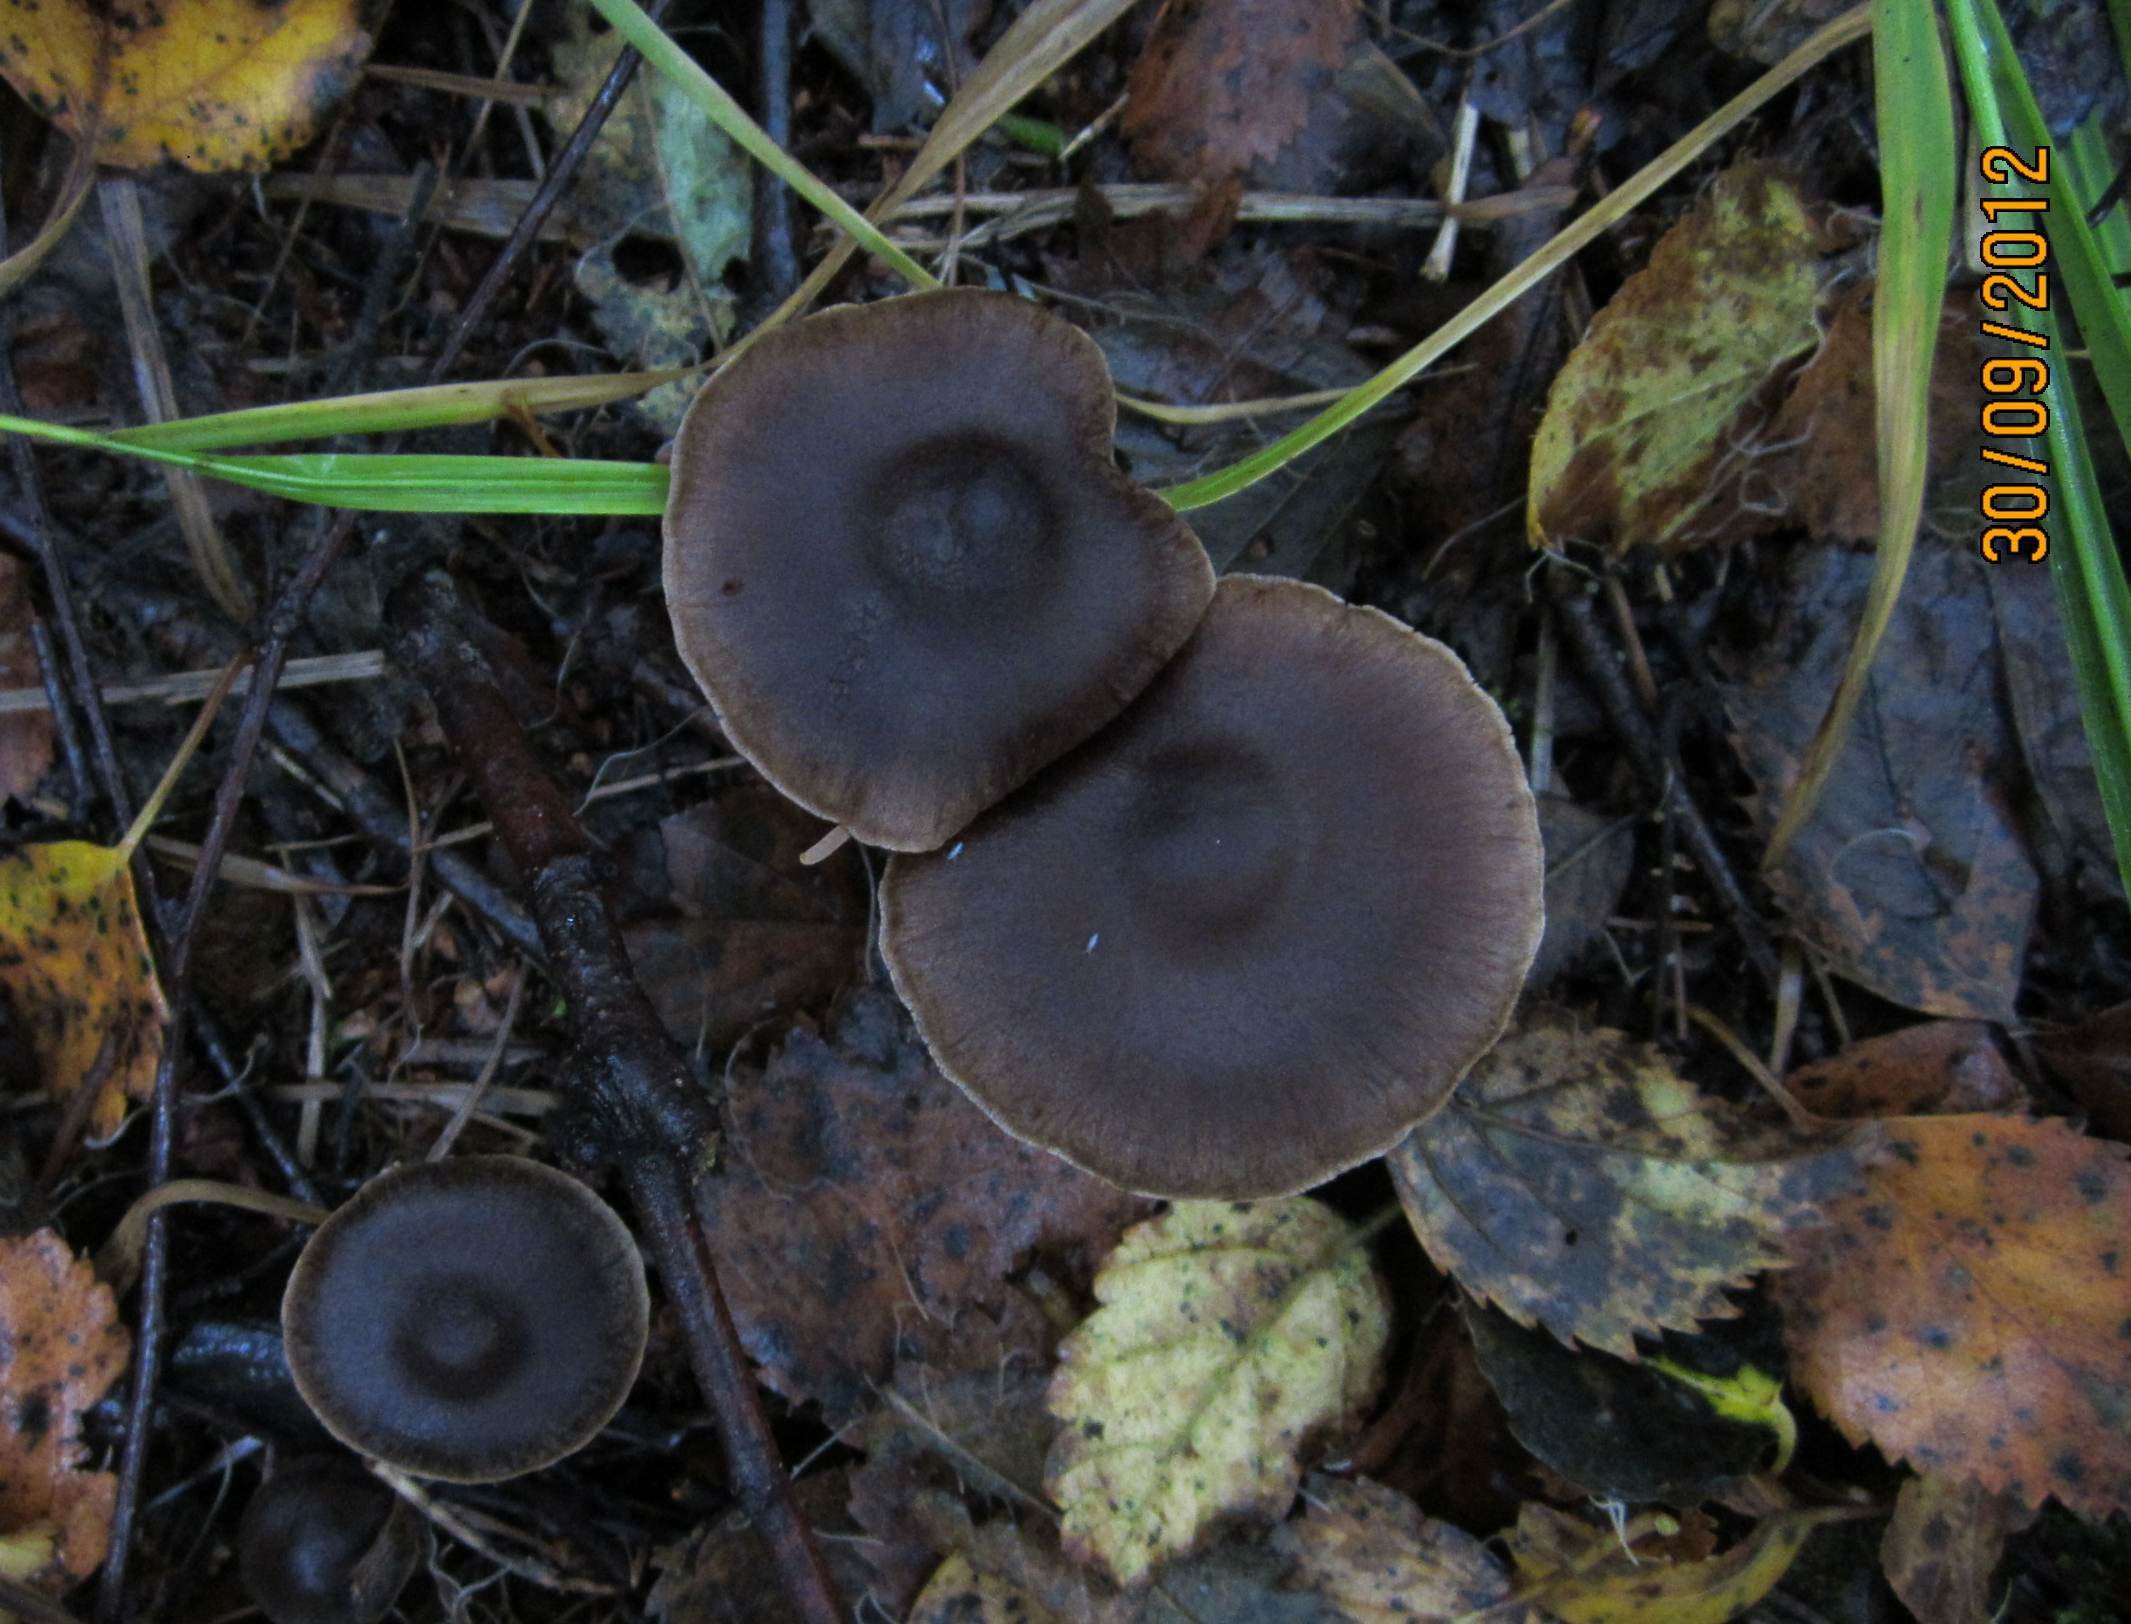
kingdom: Fungi
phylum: Basidiomycota
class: Agaricomycetes
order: Agaricales
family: Cortinariaceae
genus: Cortinarius
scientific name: Cortinarius umbrinolens
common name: mørk slørhat
